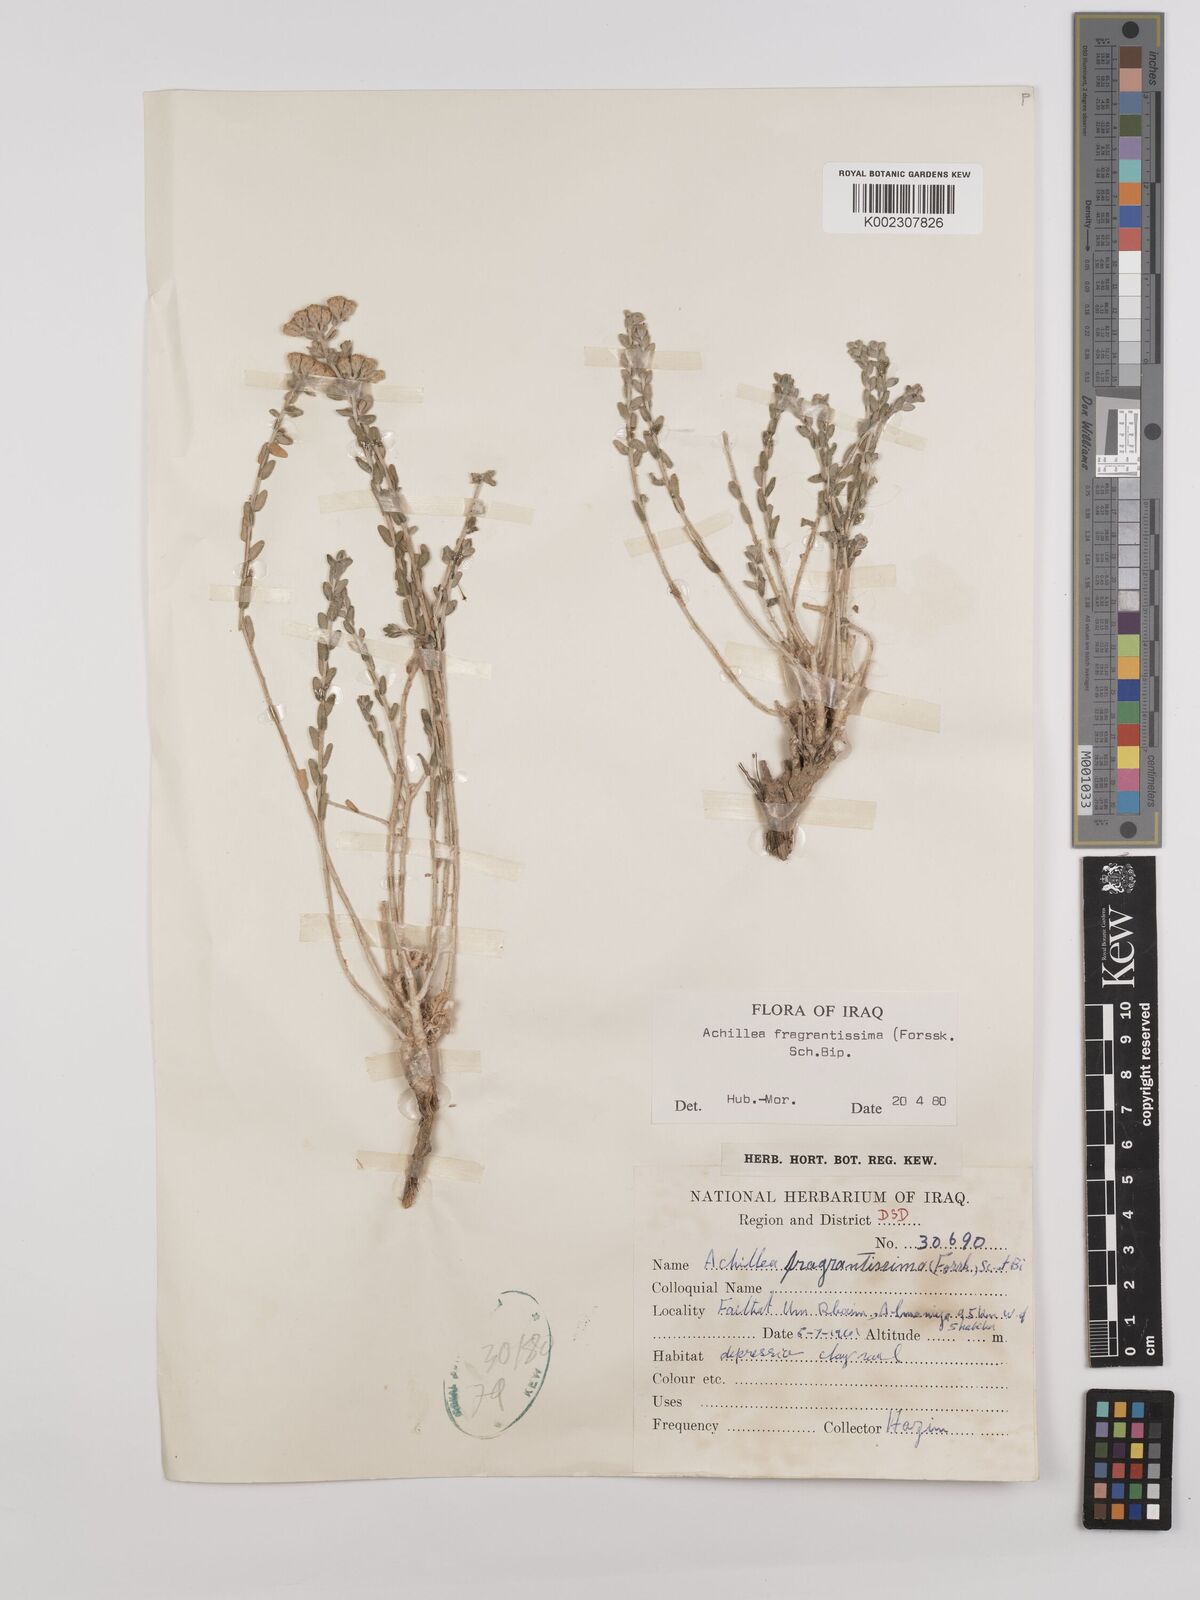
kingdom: Plantae
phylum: Tracheophyta
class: Magnoliopsida
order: Asterales
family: Asteraceae
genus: Achillea
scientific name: Achillea fragrantissima
